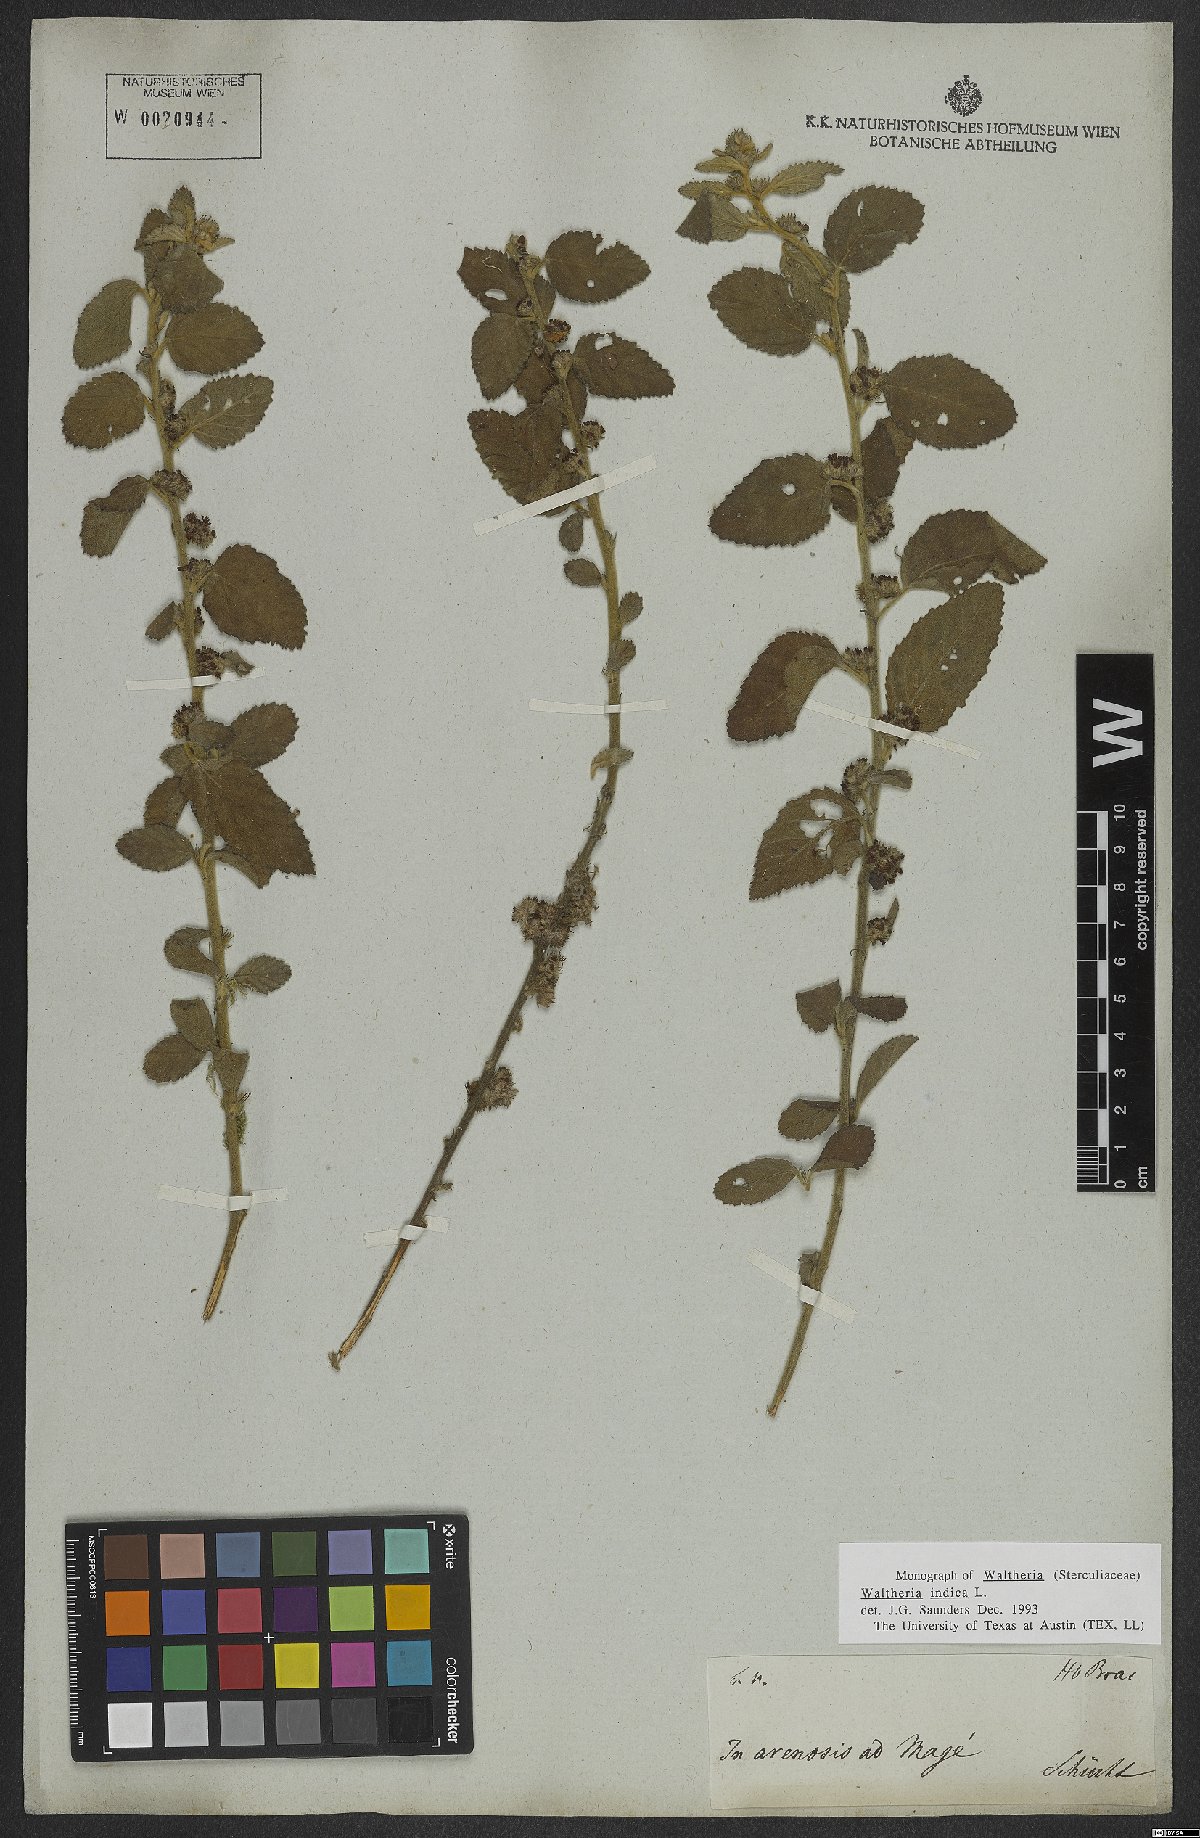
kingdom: Plantae
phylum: Tracheophyta
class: Magnoliopsida
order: Malvales
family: Malvaceae
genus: Waltheria
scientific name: Waltheria indica
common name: Leather-coat
